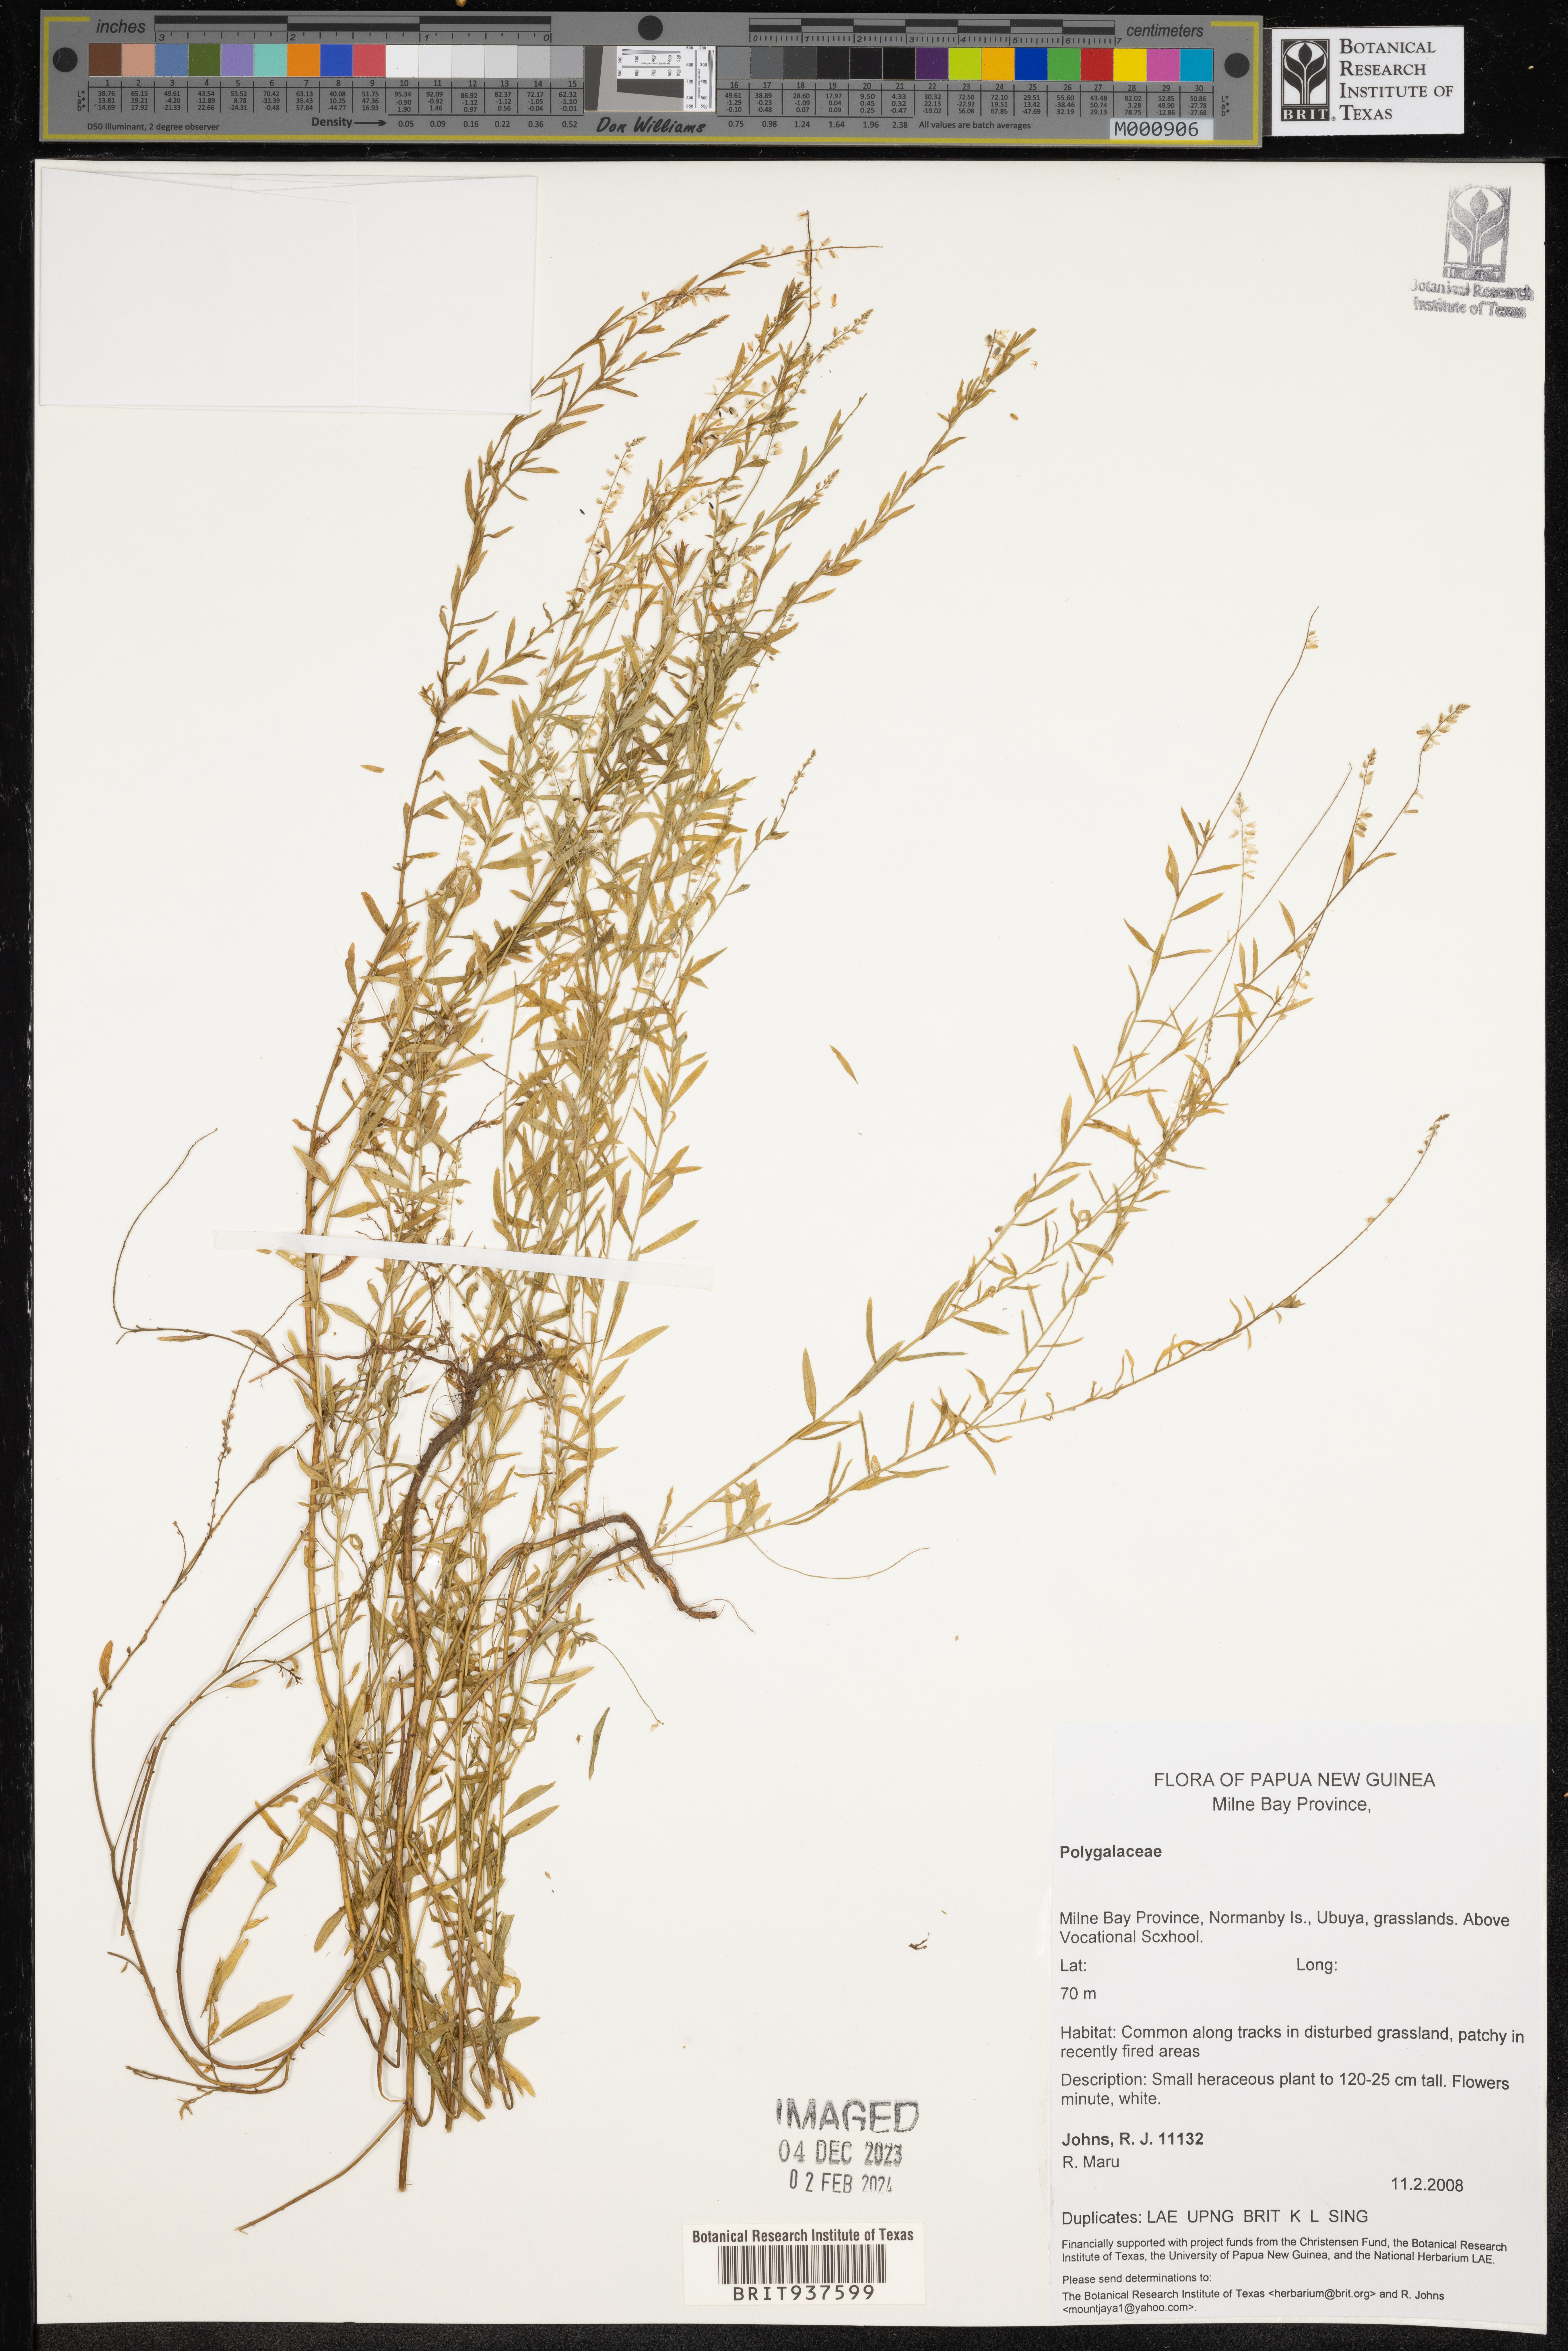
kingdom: Plantae
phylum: Tracheophyta
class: Magnoliopsida
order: Fabales
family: Polygalaceae
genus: Polygala
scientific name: Polygala
